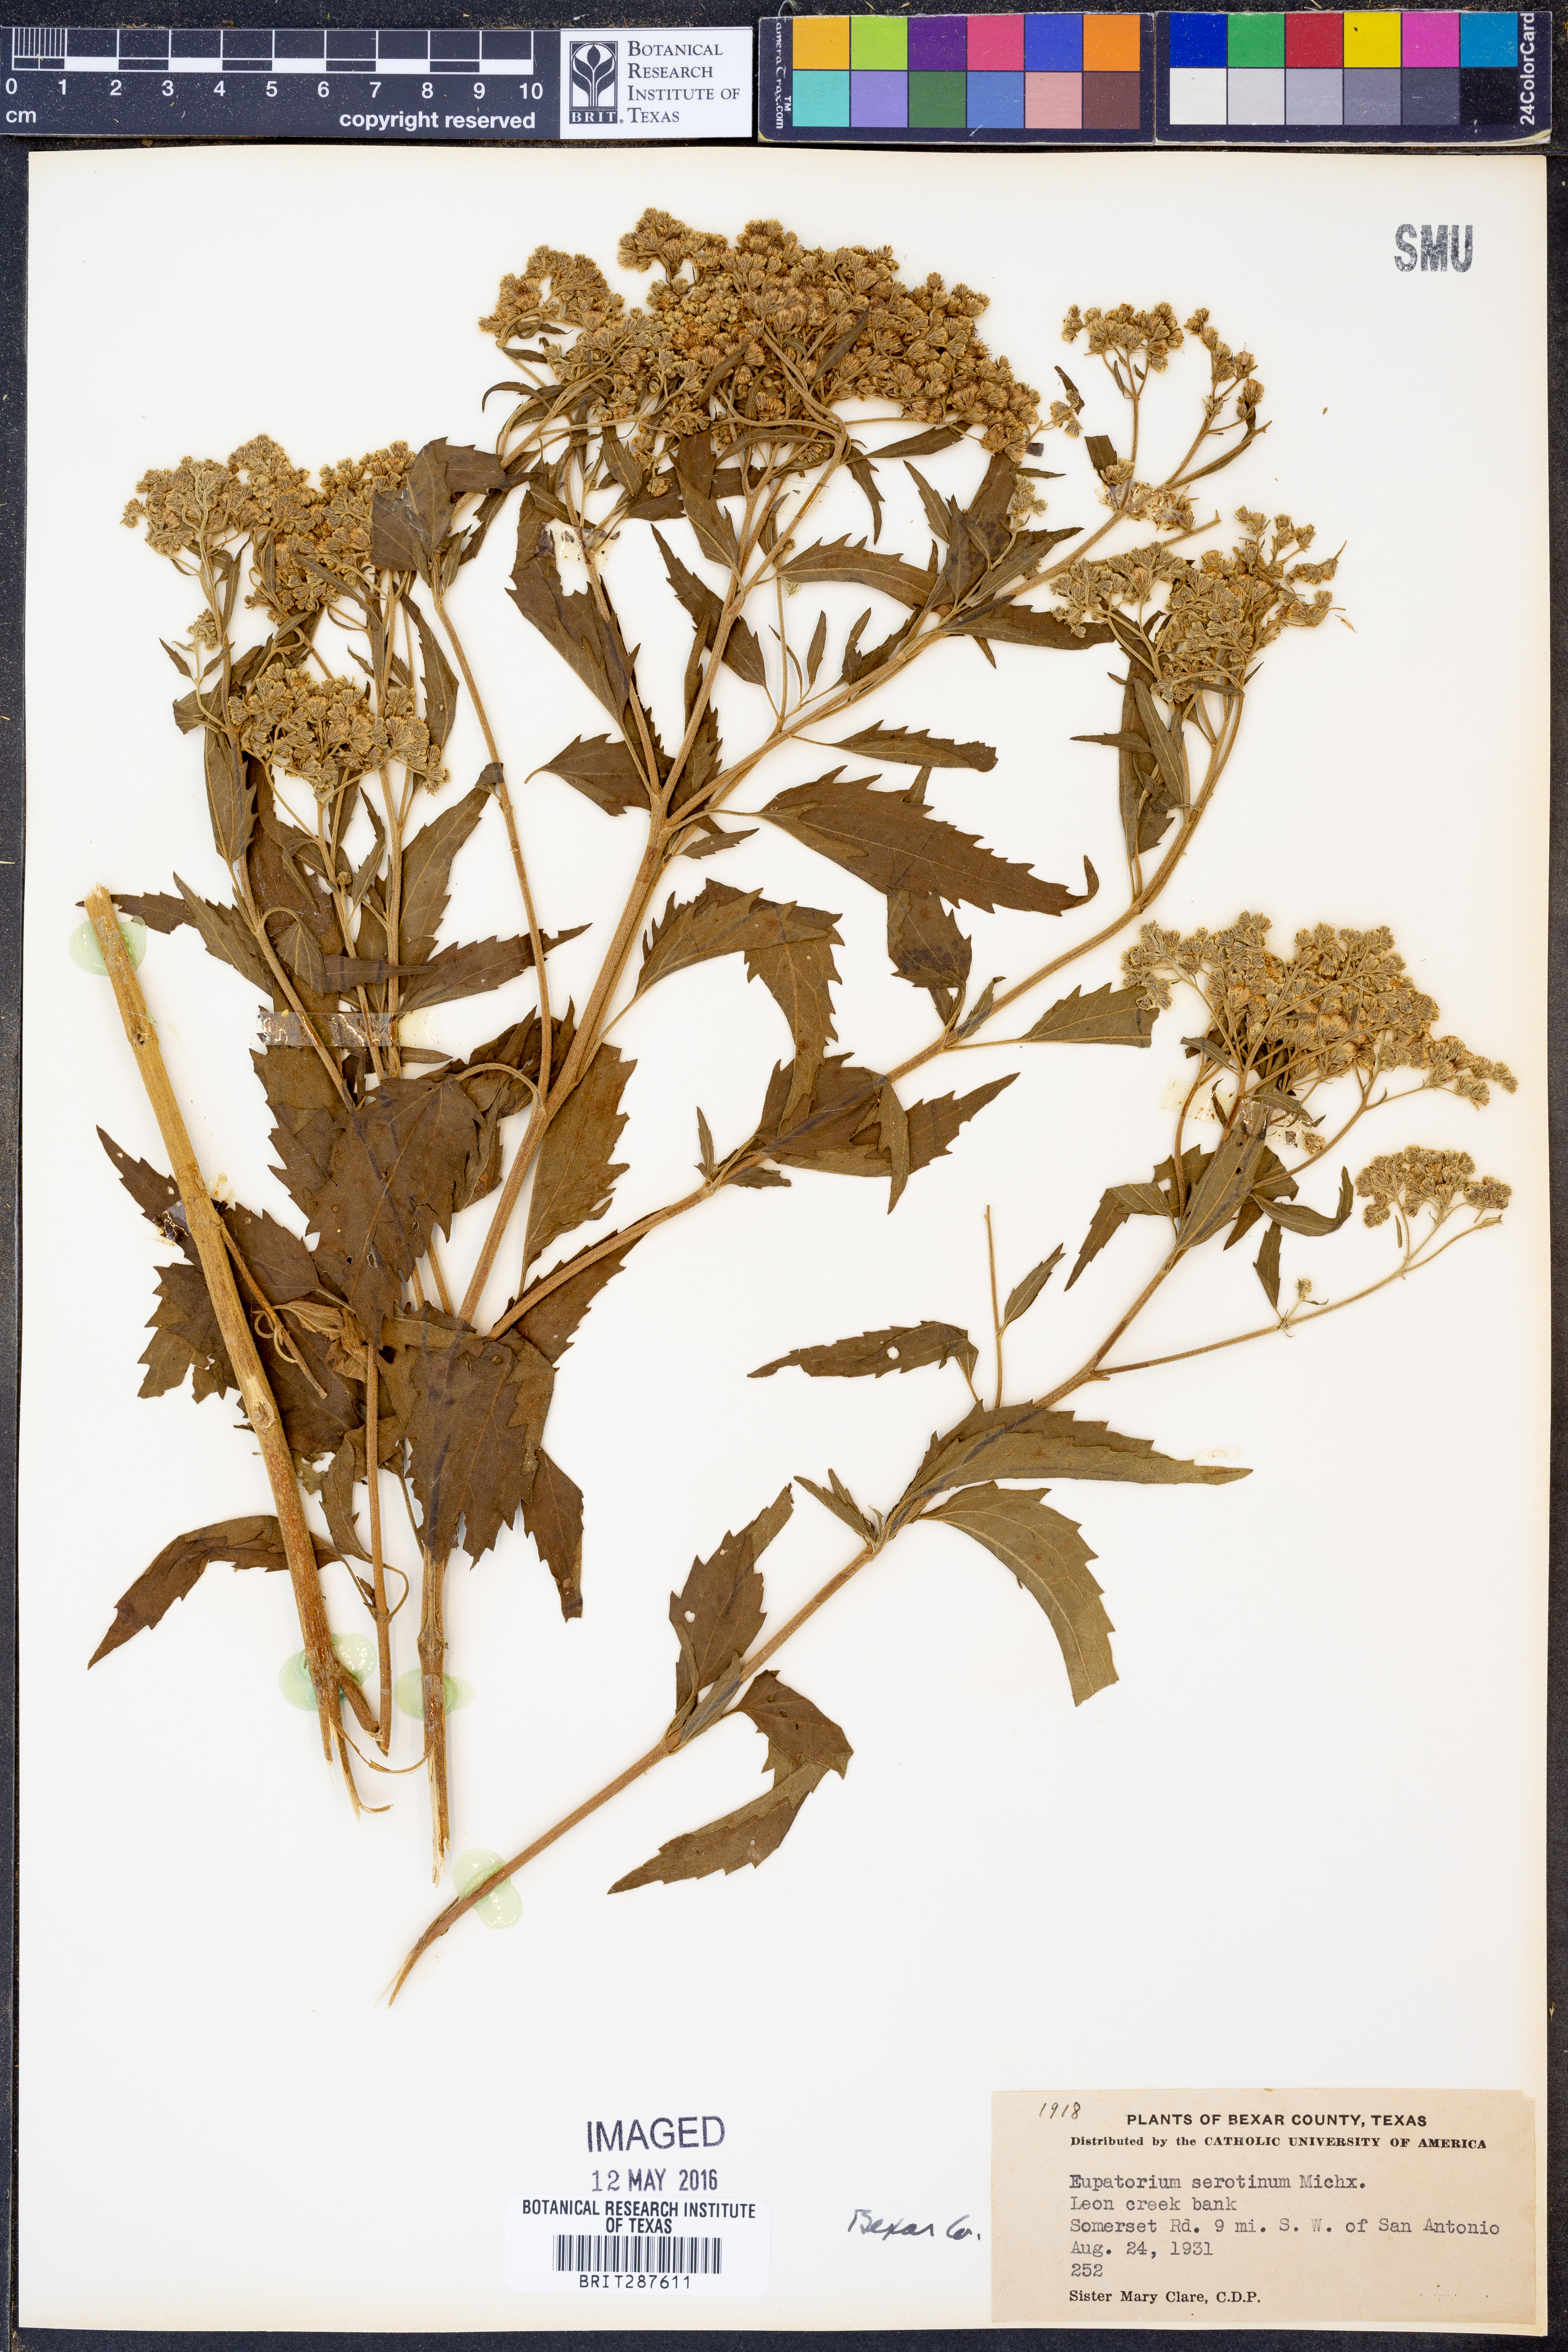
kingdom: Plantae
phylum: Tracheophyta
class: Magnoliopsida
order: Asterales
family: Asteraceae
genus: Eupatorium
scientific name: Eupatorium serotinum
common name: Late boneset
